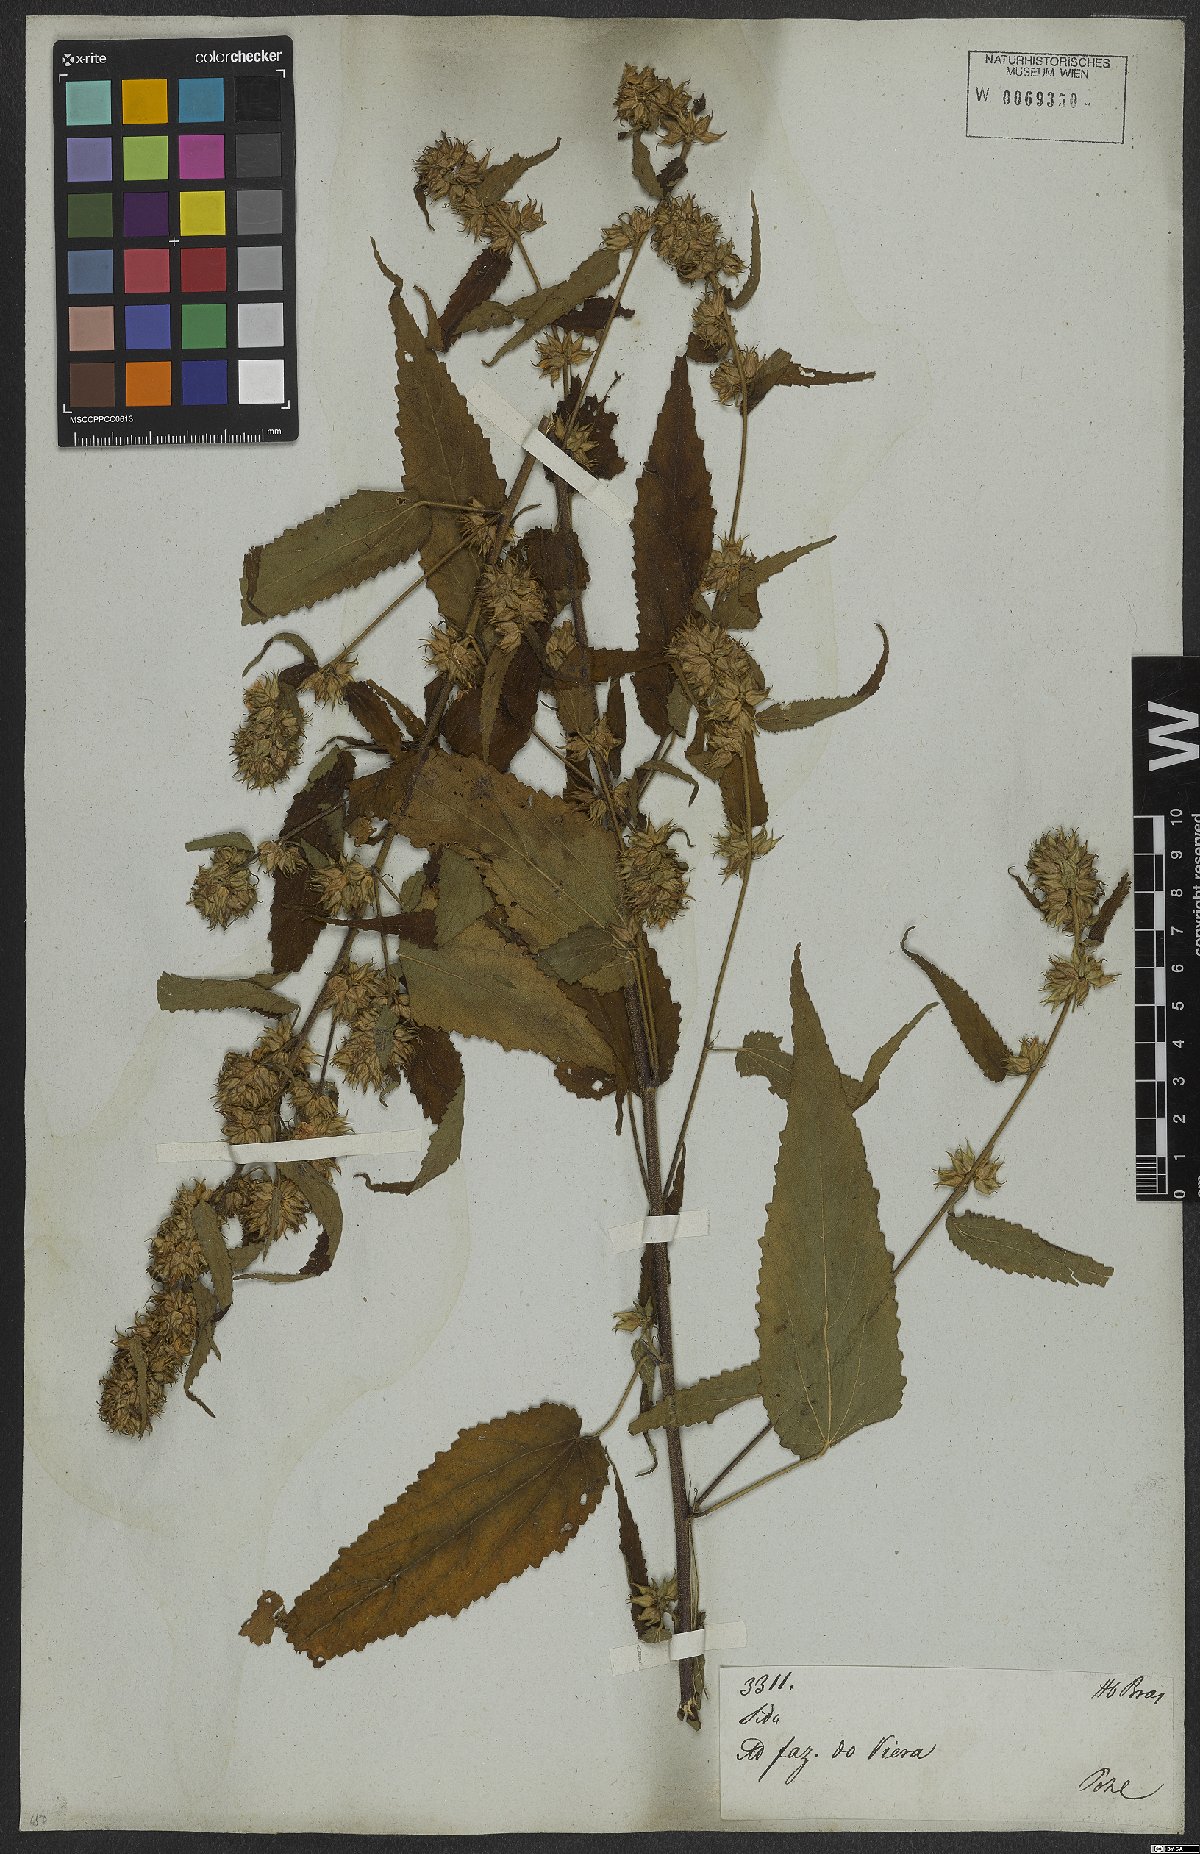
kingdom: Plantae
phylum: Tracheophyta
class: Magnoliopsida
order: Malvales
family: Malvaceae
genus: Sida
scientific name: Sida caudata
